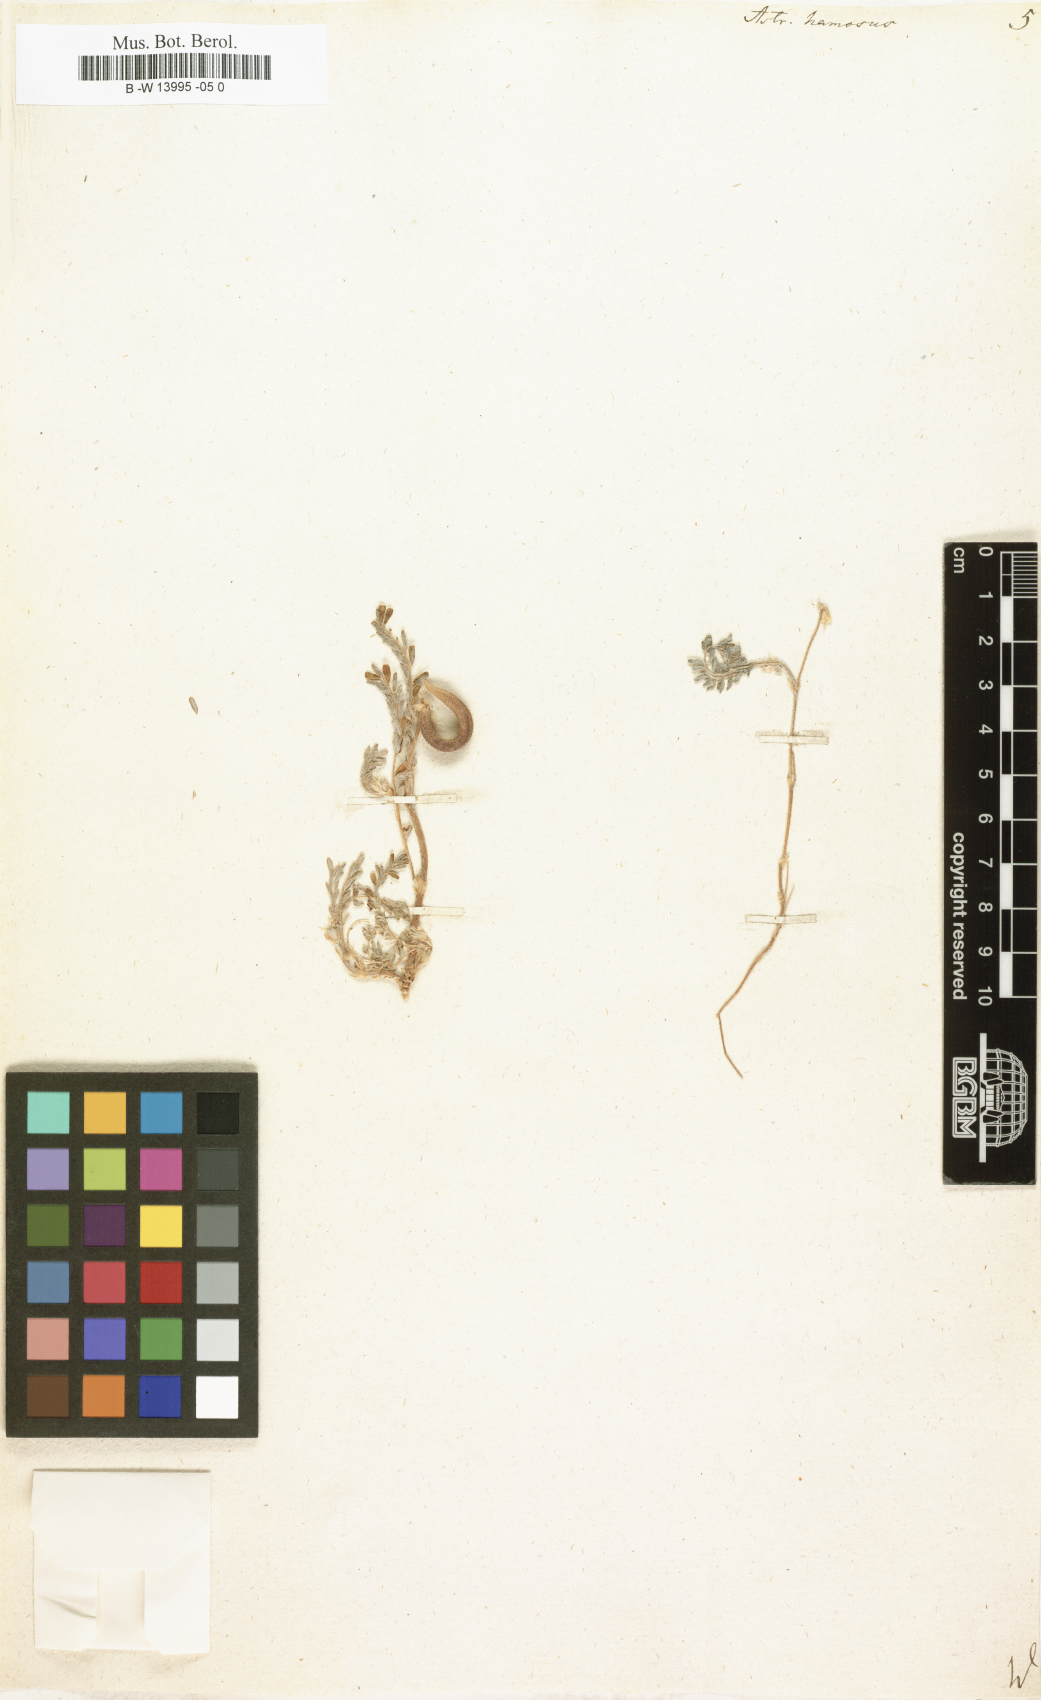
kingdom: Plantae
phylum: Tracheophyta
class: Magnoliopsida
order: Fabales
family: Fabaceae
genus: Astragalus
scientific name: Astragalus hamosus
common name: European milkvetch
